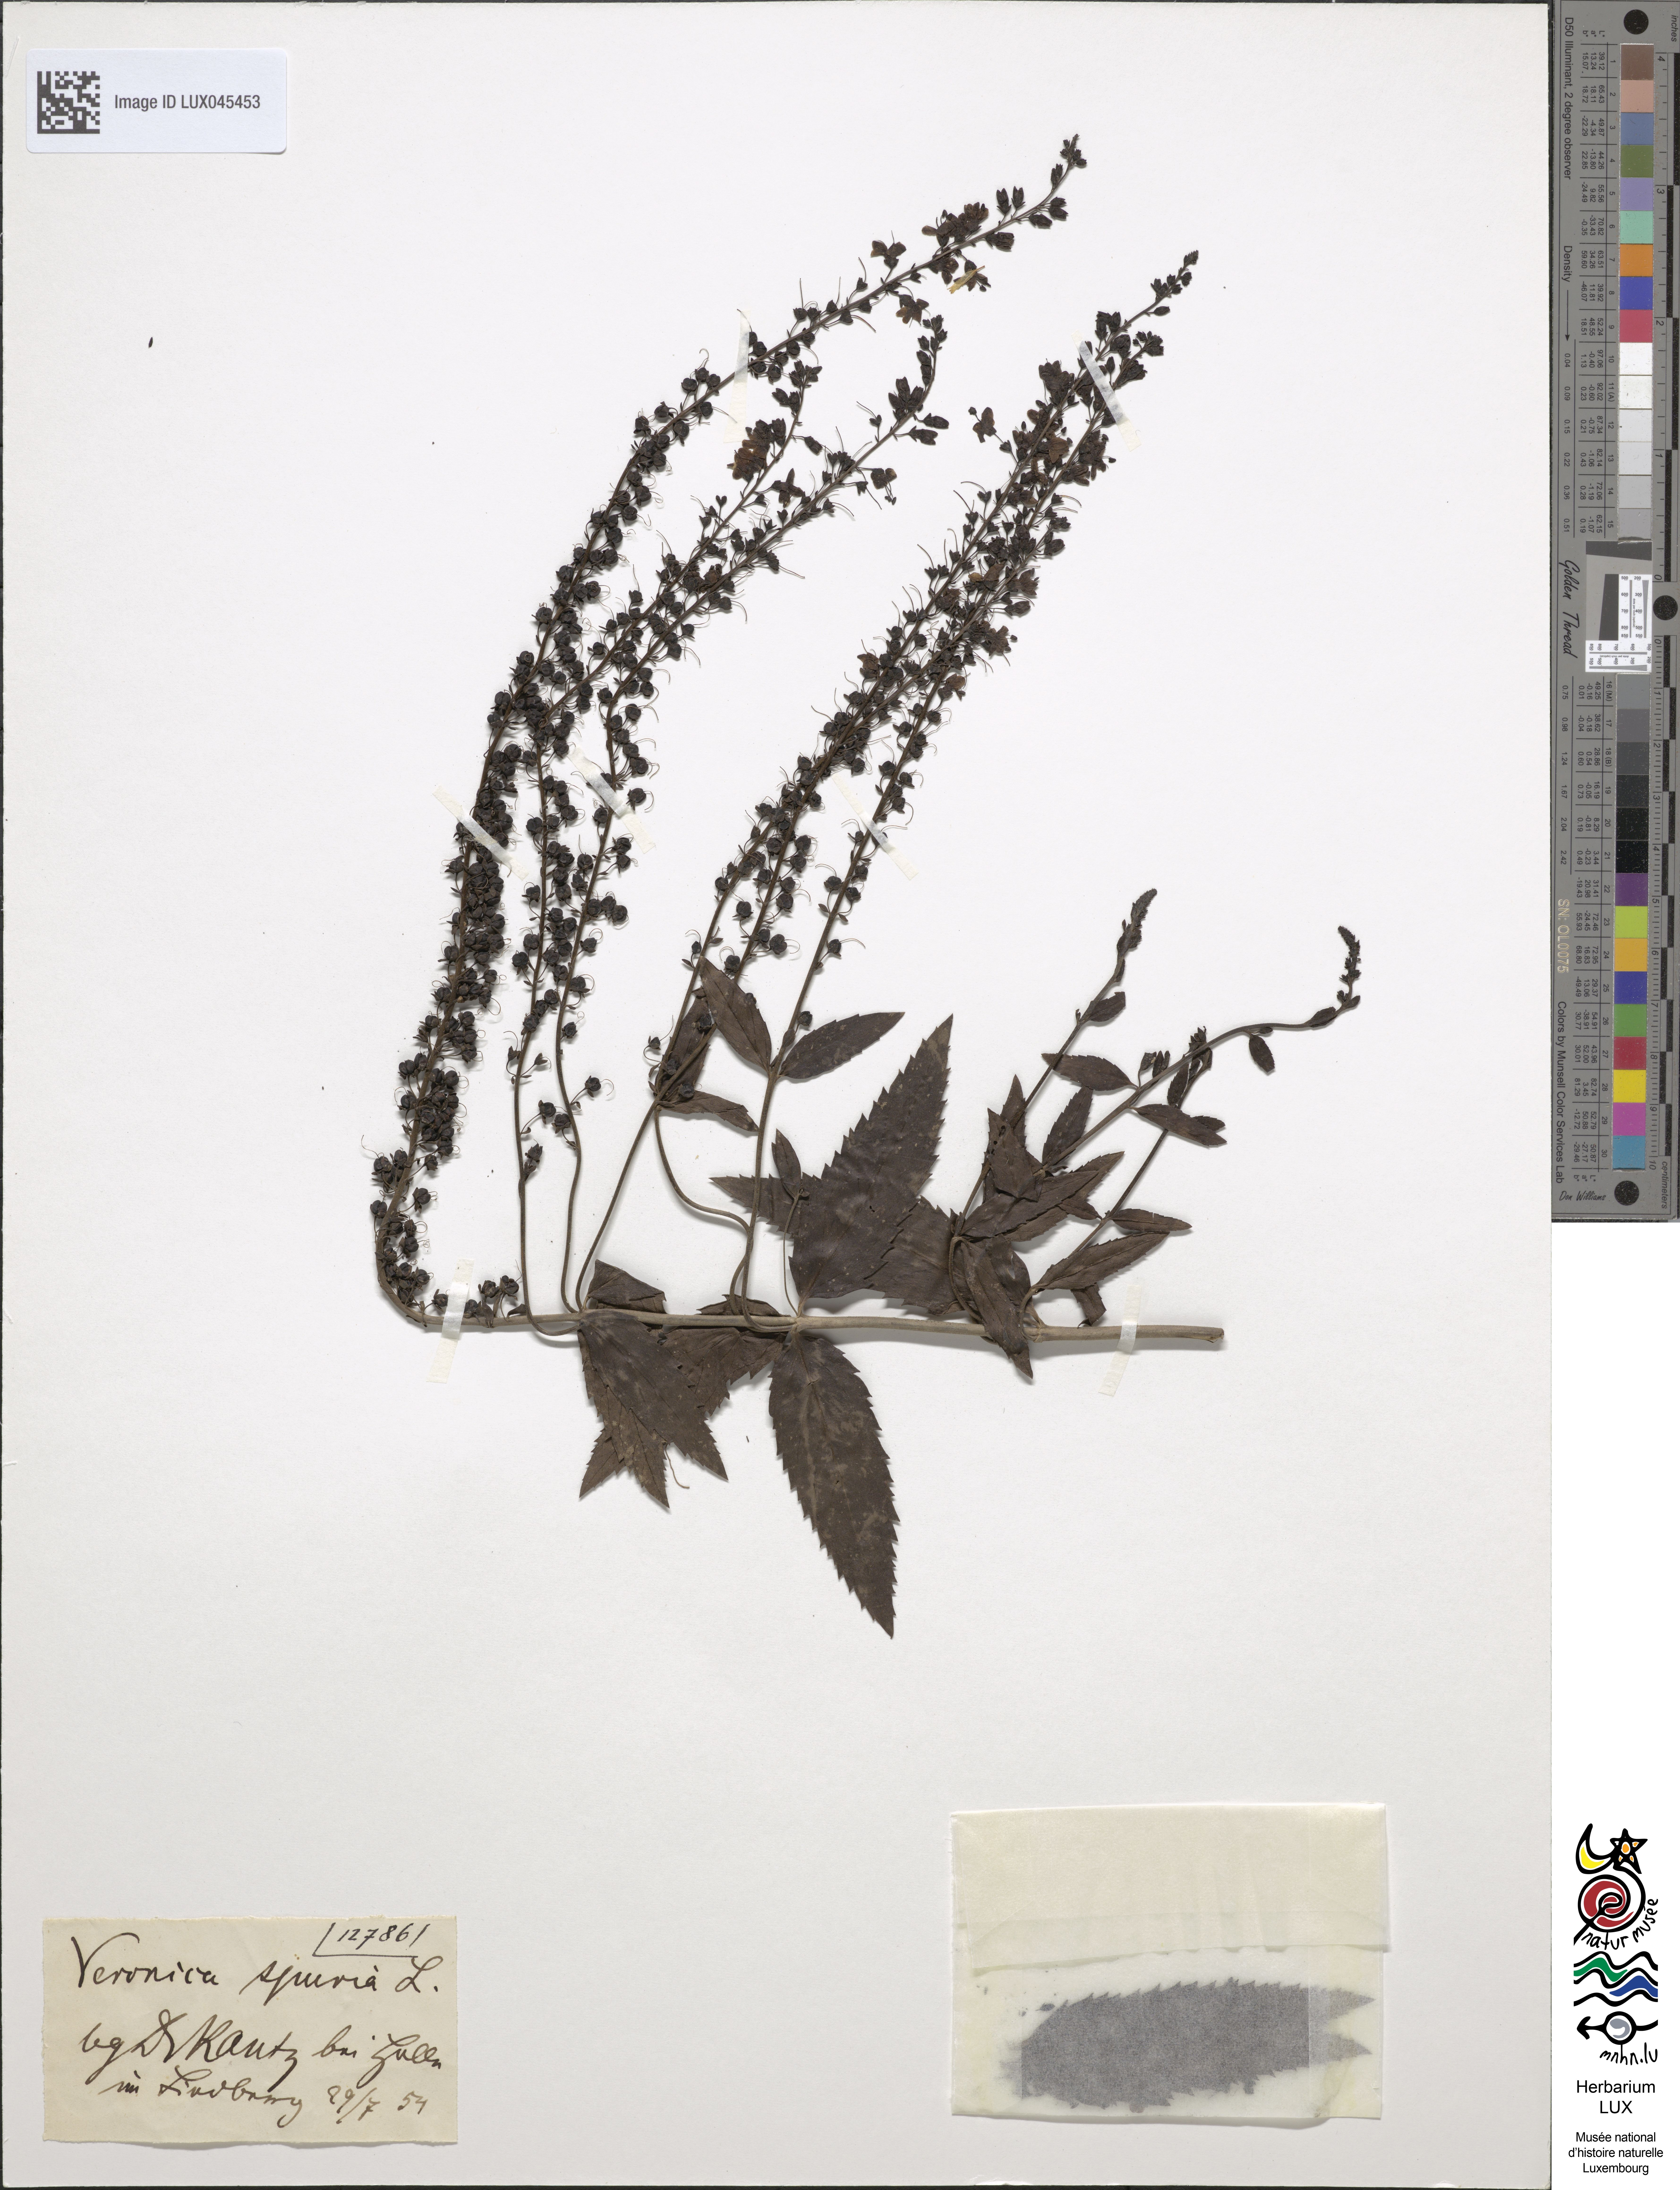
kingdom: Plantae
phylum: Tracheophyta
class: Magnoliopsida
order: Lamiales
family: Plantaginaceae
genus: Veronica
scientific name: Veronica spuria
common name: Bastard speedwell
